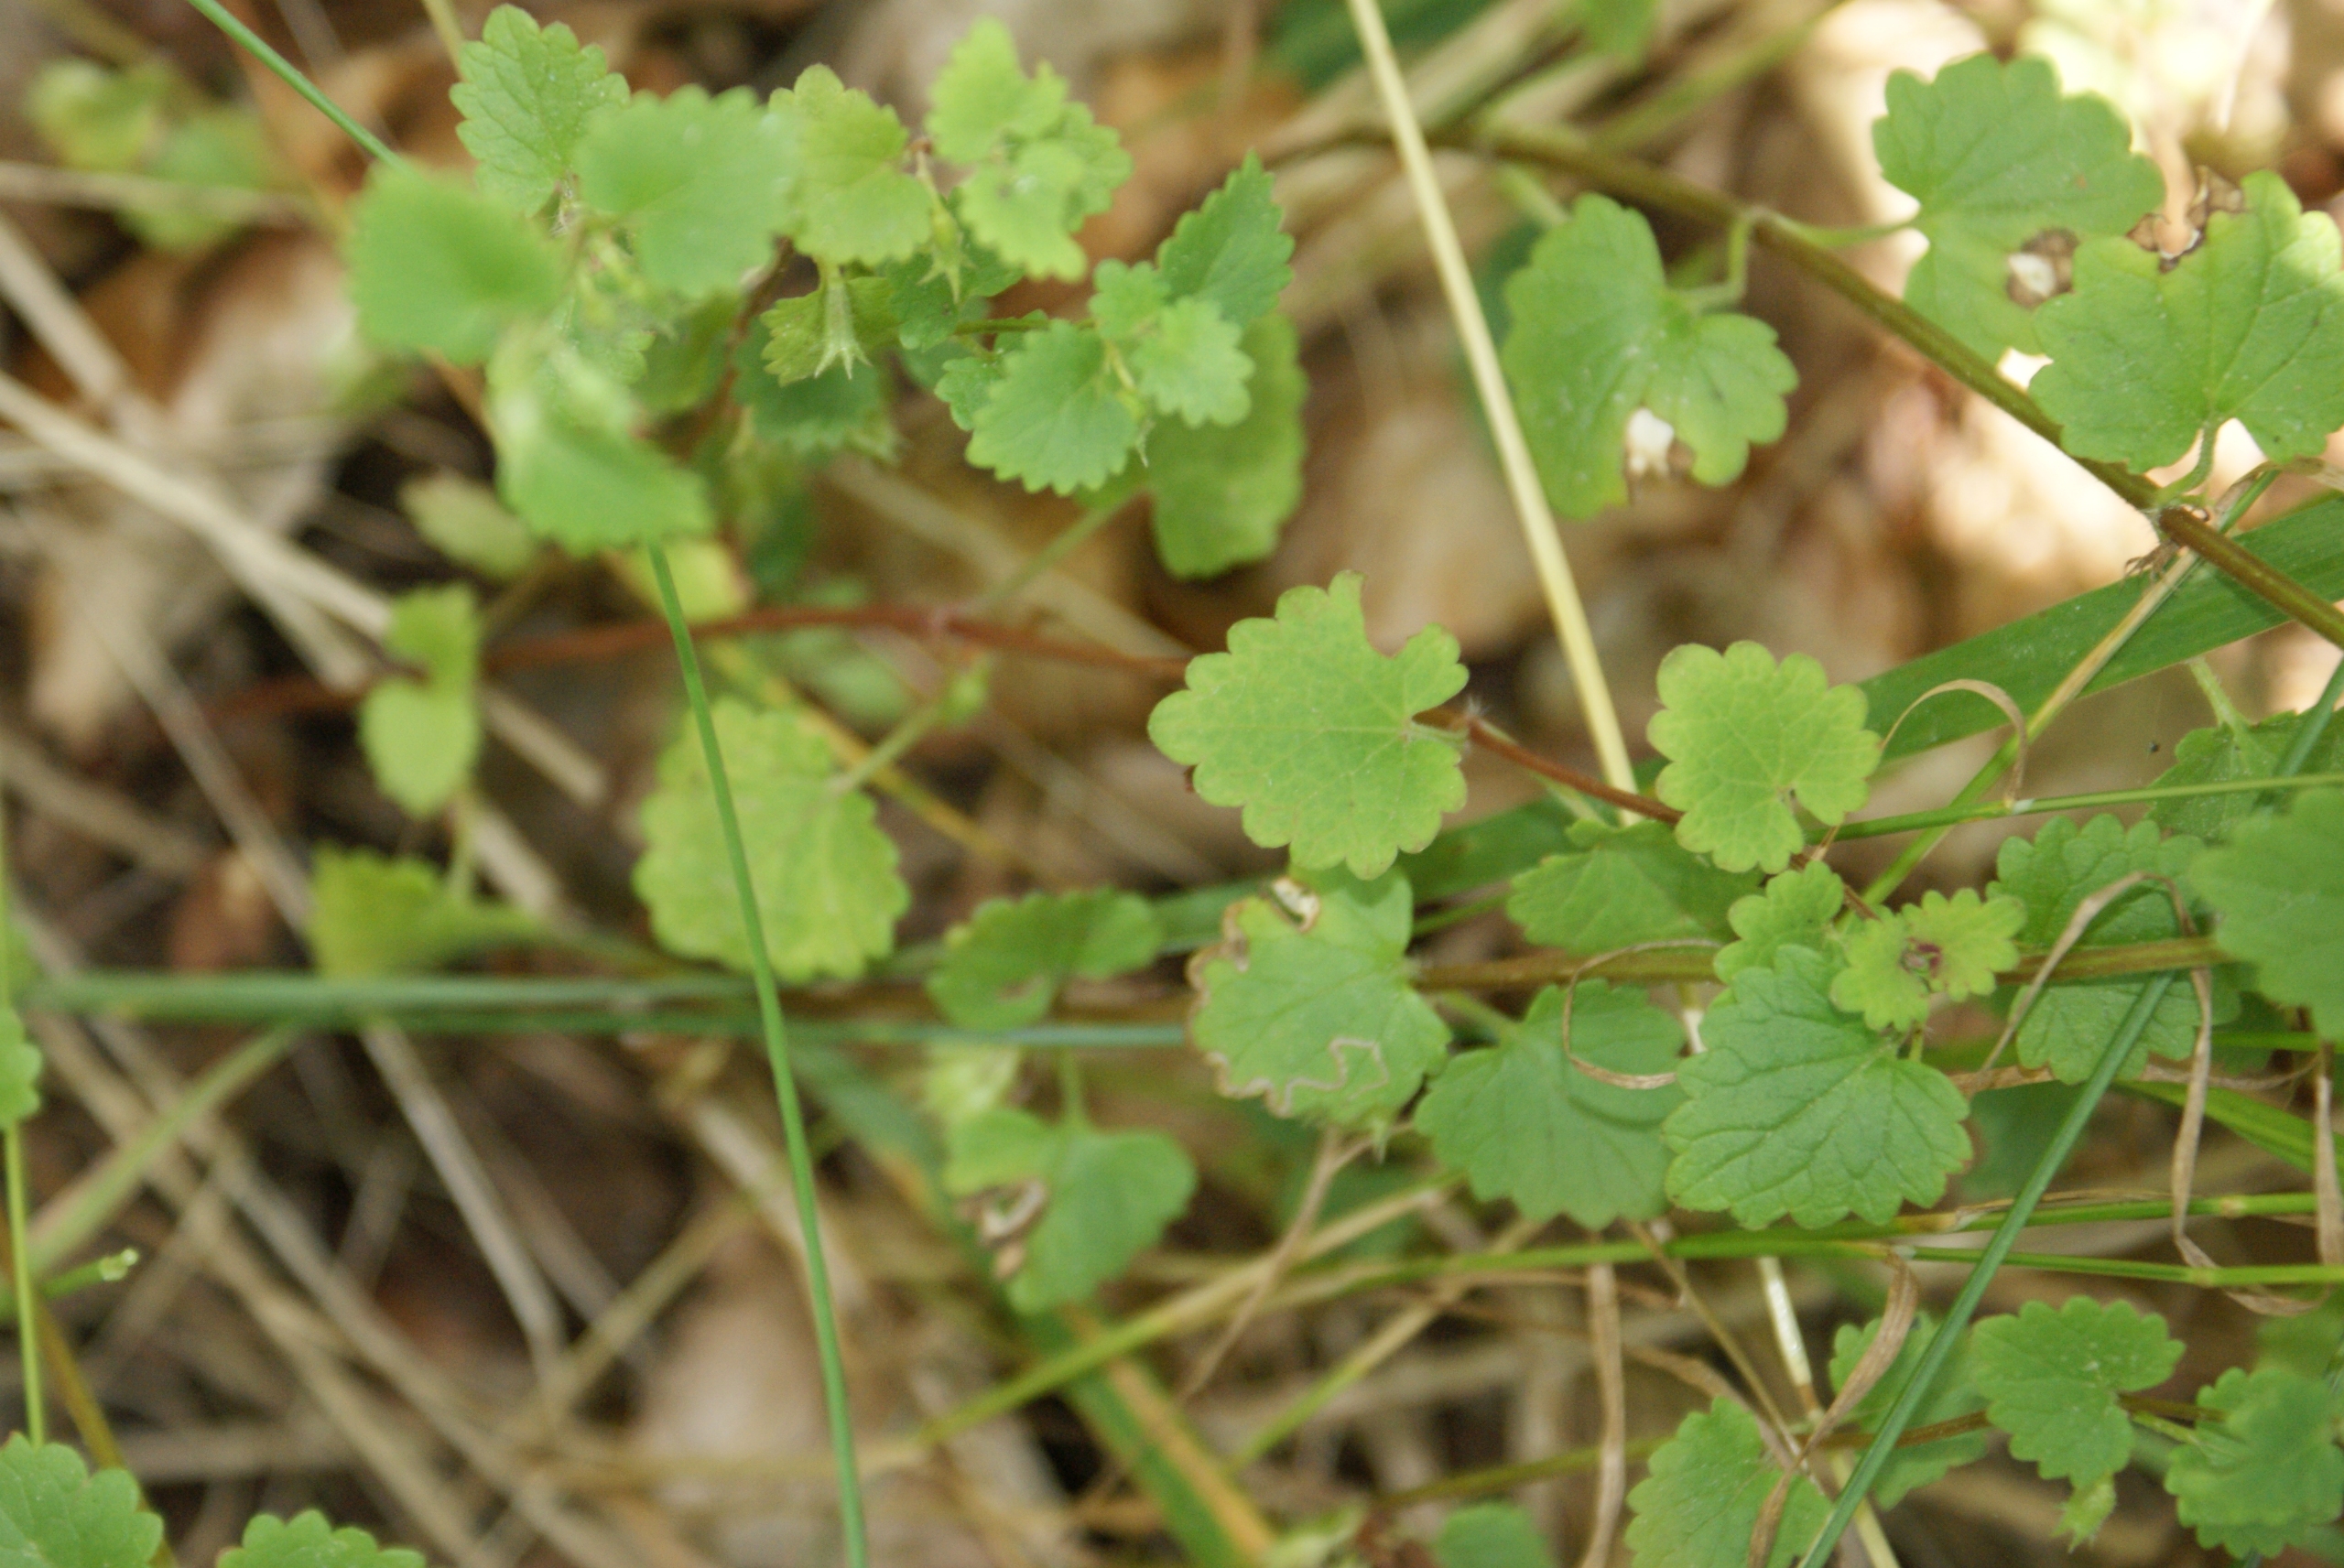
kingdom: Plantae
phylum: Tracheophyta
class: Magnoliopsida
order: Lamiales
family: Lamiaceae
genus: Glechoma
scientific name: Glechoma hederacea
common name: Korsknap
